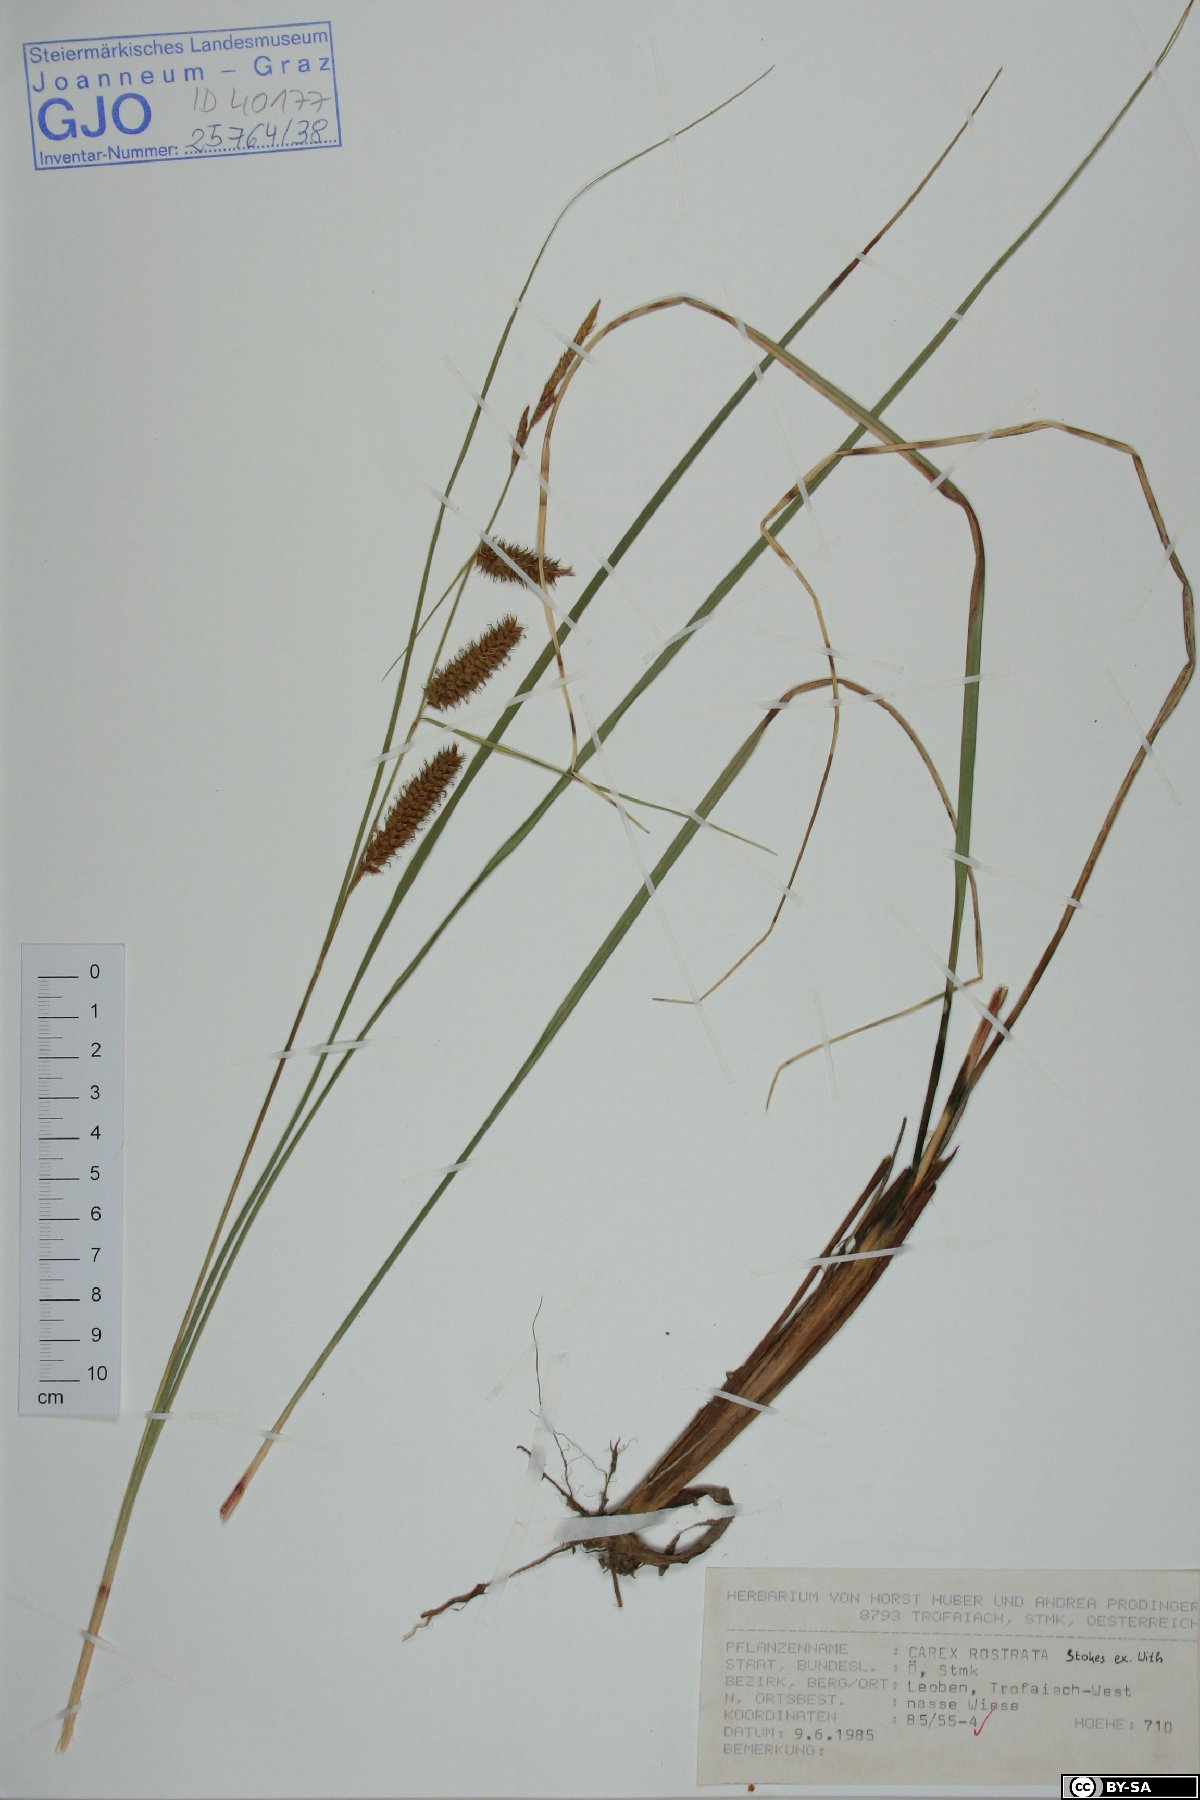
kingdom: Plantae
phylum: Tracheophyta
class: Liliopsida
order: Poales
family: Cyperaceae
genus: Carex
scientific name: Carex rostrata
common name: Bottle sedge
